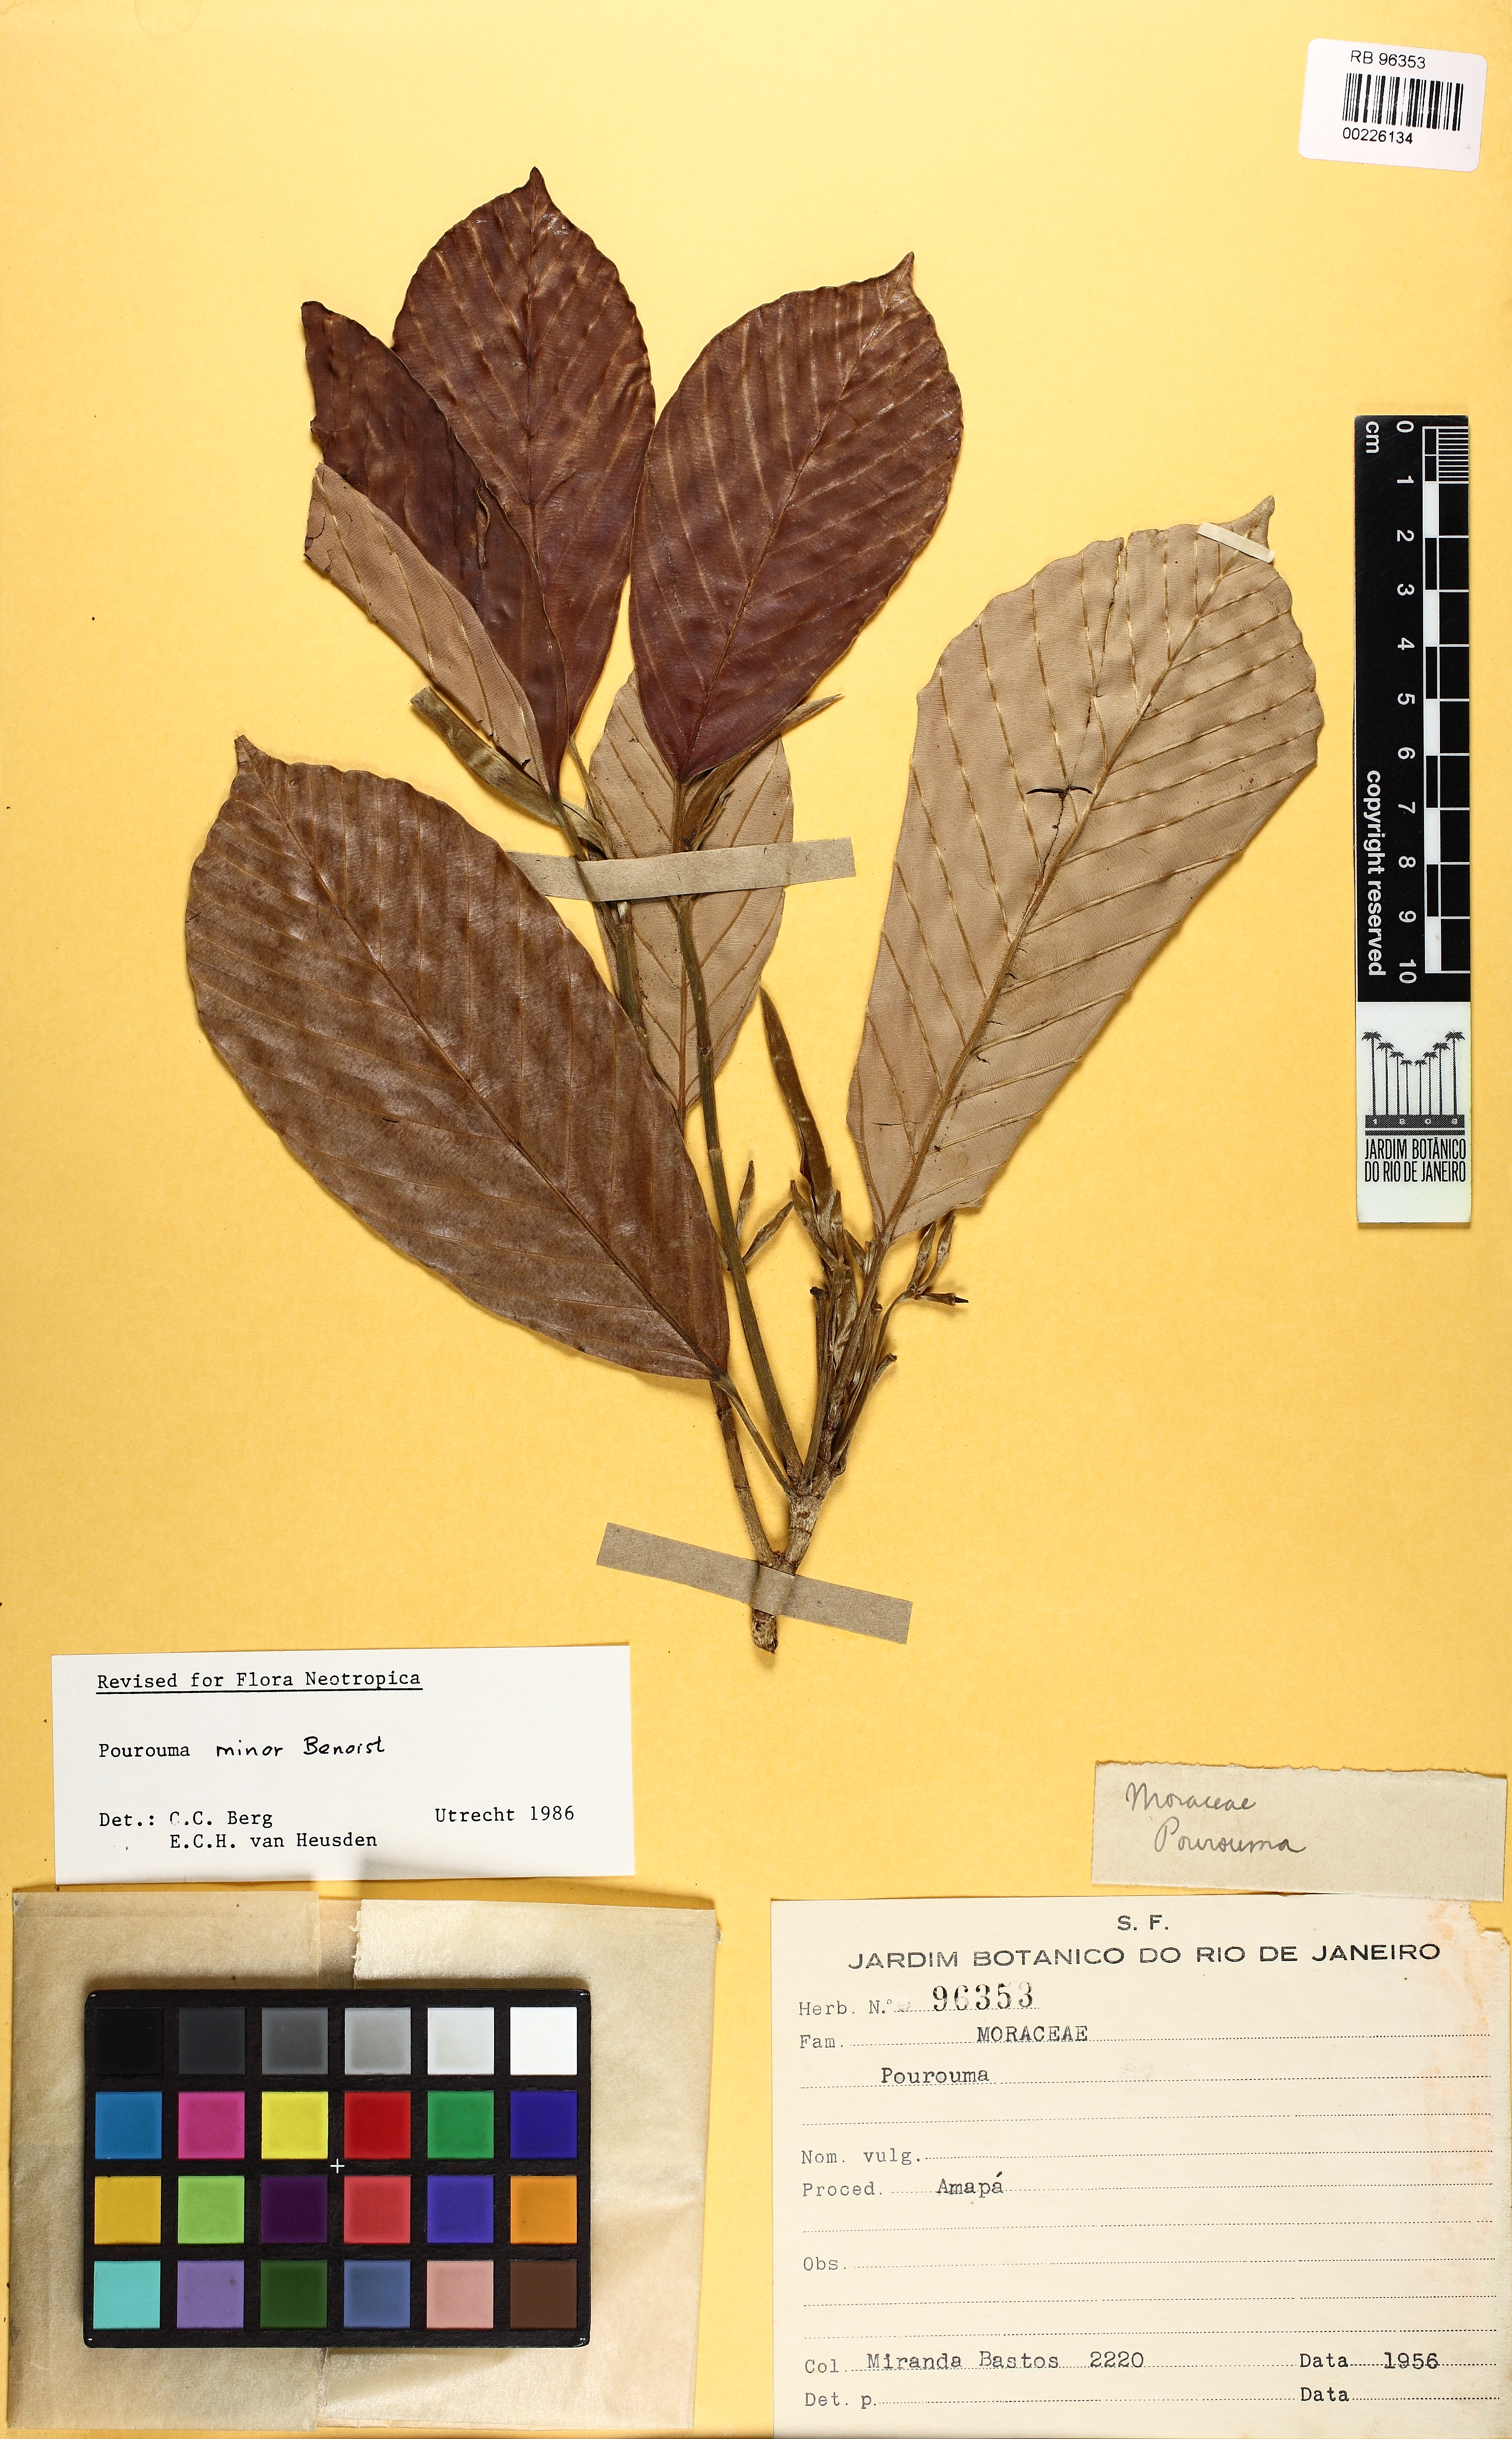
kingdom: Plantae
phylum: Tracheophyta
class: Magnoliopsida
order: Rosales
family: Urticaceae
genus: Pourouma
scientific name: Pourouma minor
